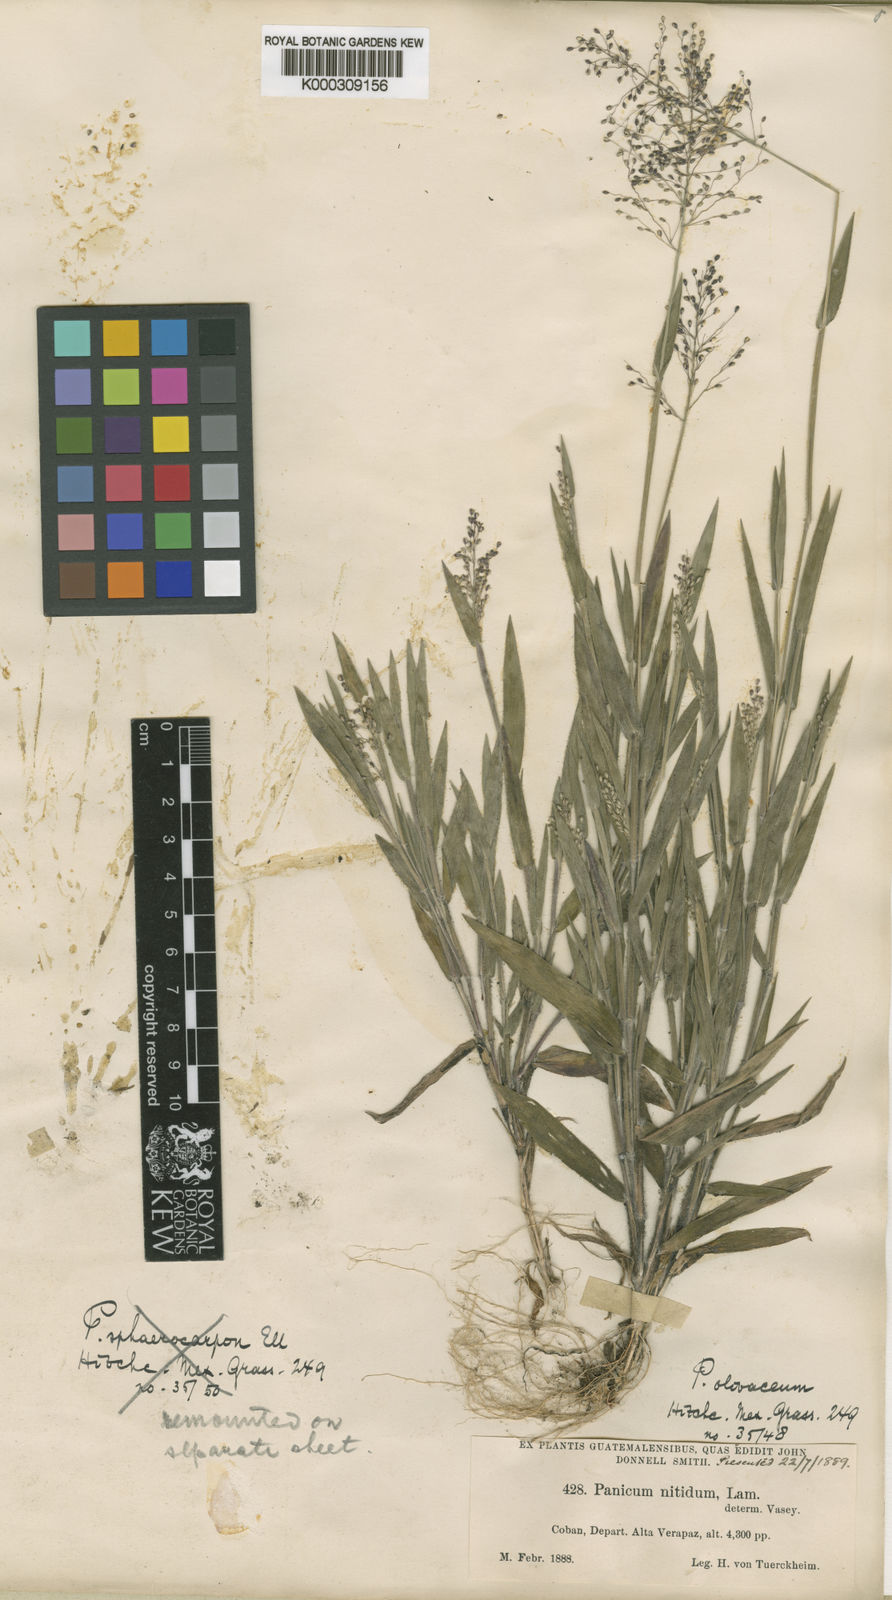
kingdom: Plantae
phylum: Tracheophyta
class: Liliopsida
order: Poales
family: Poaceae
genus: Dichanthelium
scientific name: Dichanthelium acuminatum
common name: Hairy panic grass
